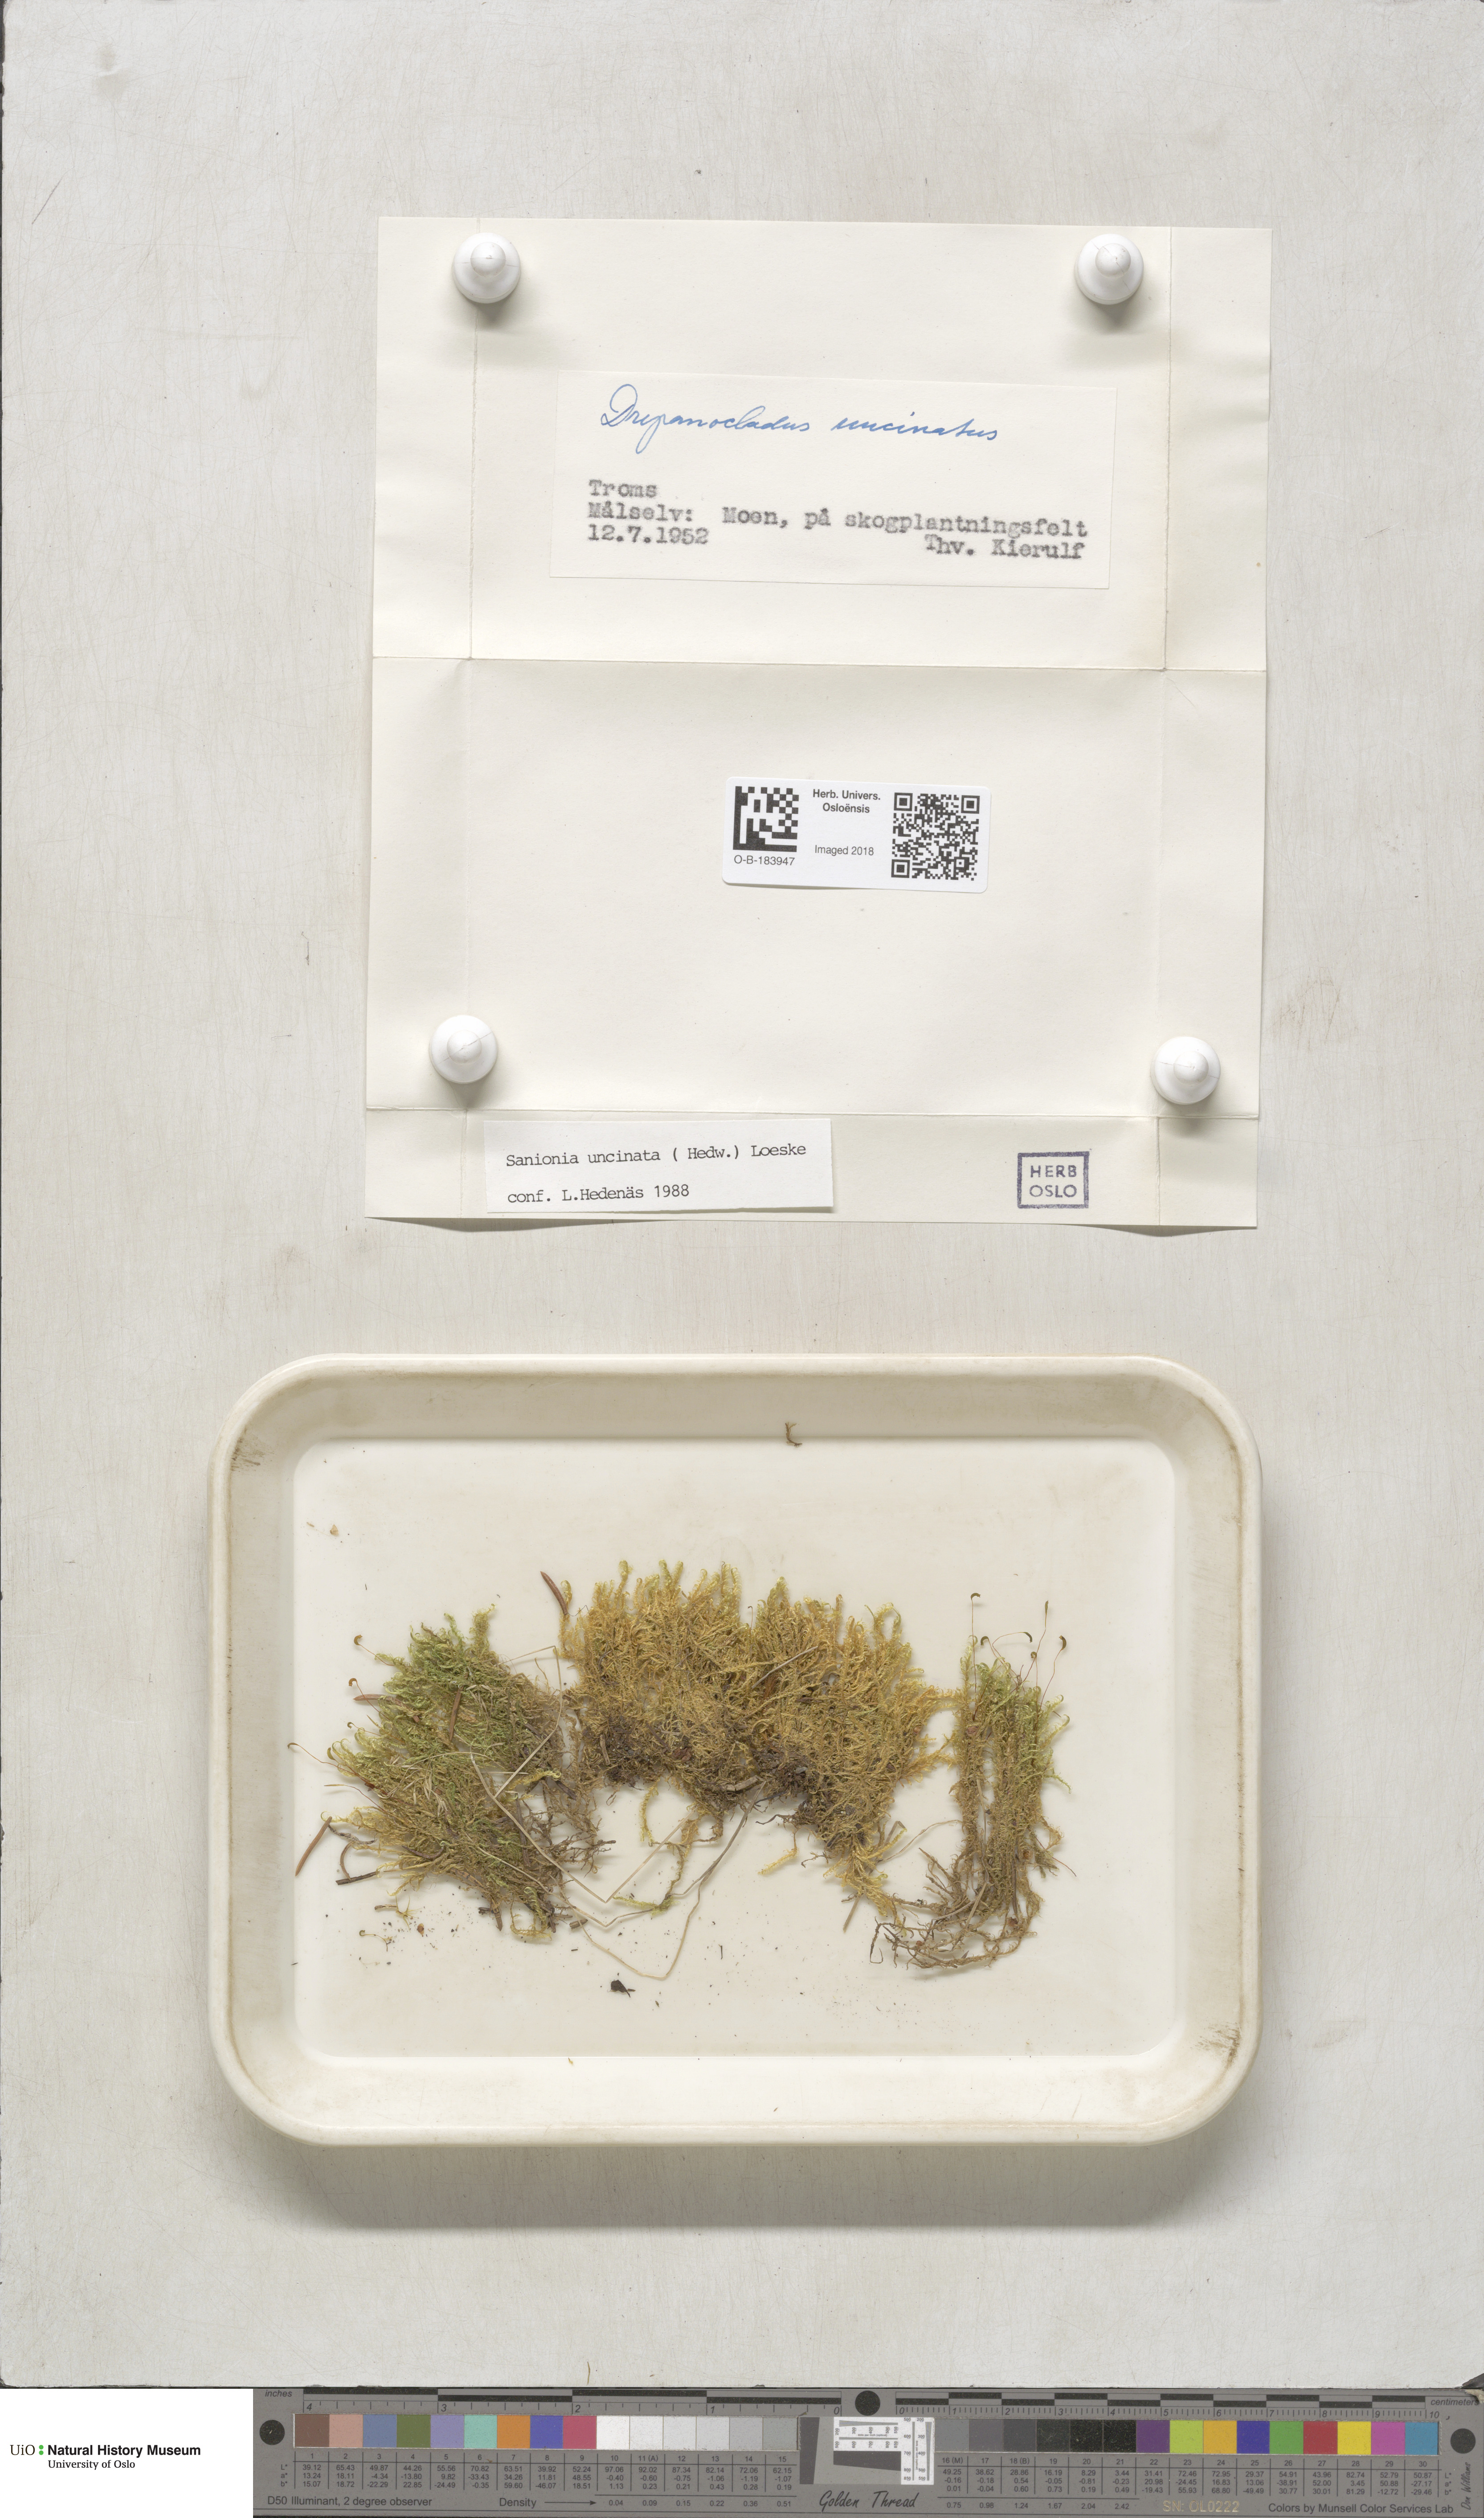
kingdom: Plantae
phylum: Bryophyta
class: Bryopsida
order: Hypnales
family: Scorpidiaceae
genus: Sanionia
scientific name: Sanionia uncinata
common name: Sickle moss
